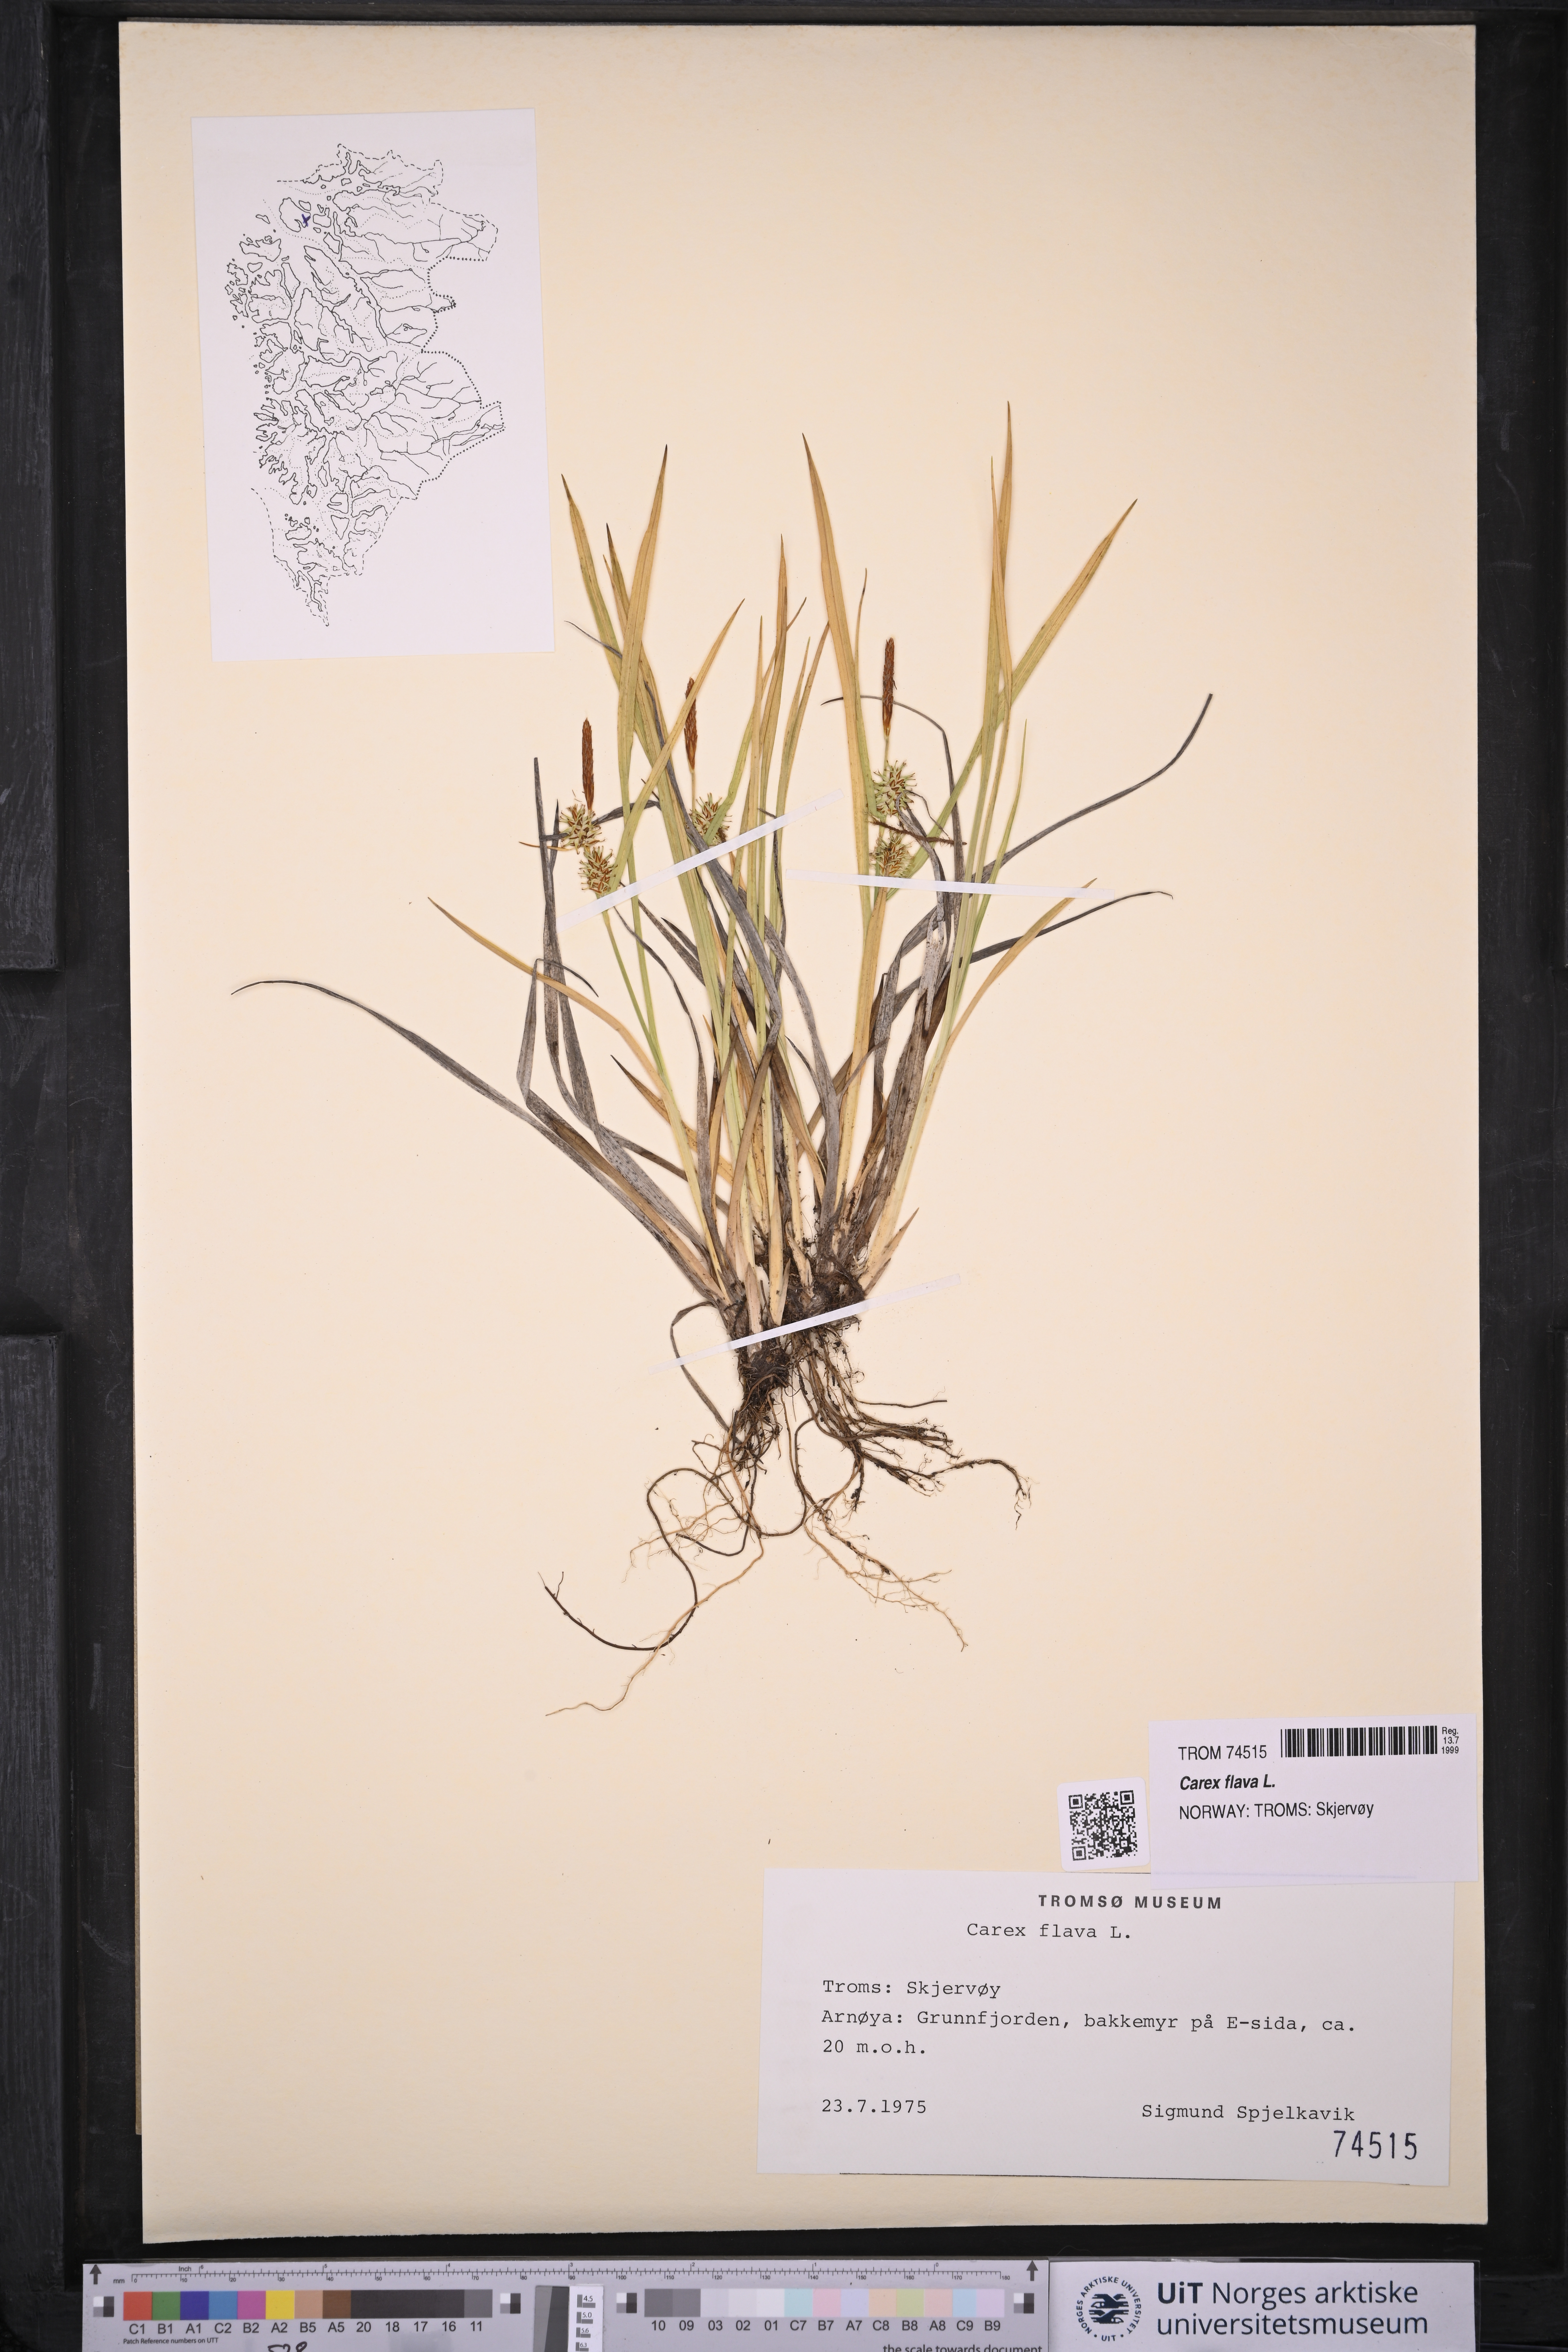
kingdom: Plantae
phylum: Tracheophyta
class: Liliopsida
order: Poales
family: Cyperaceae
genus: Carex
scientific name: Carex flava
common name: Large yellow-sedge
